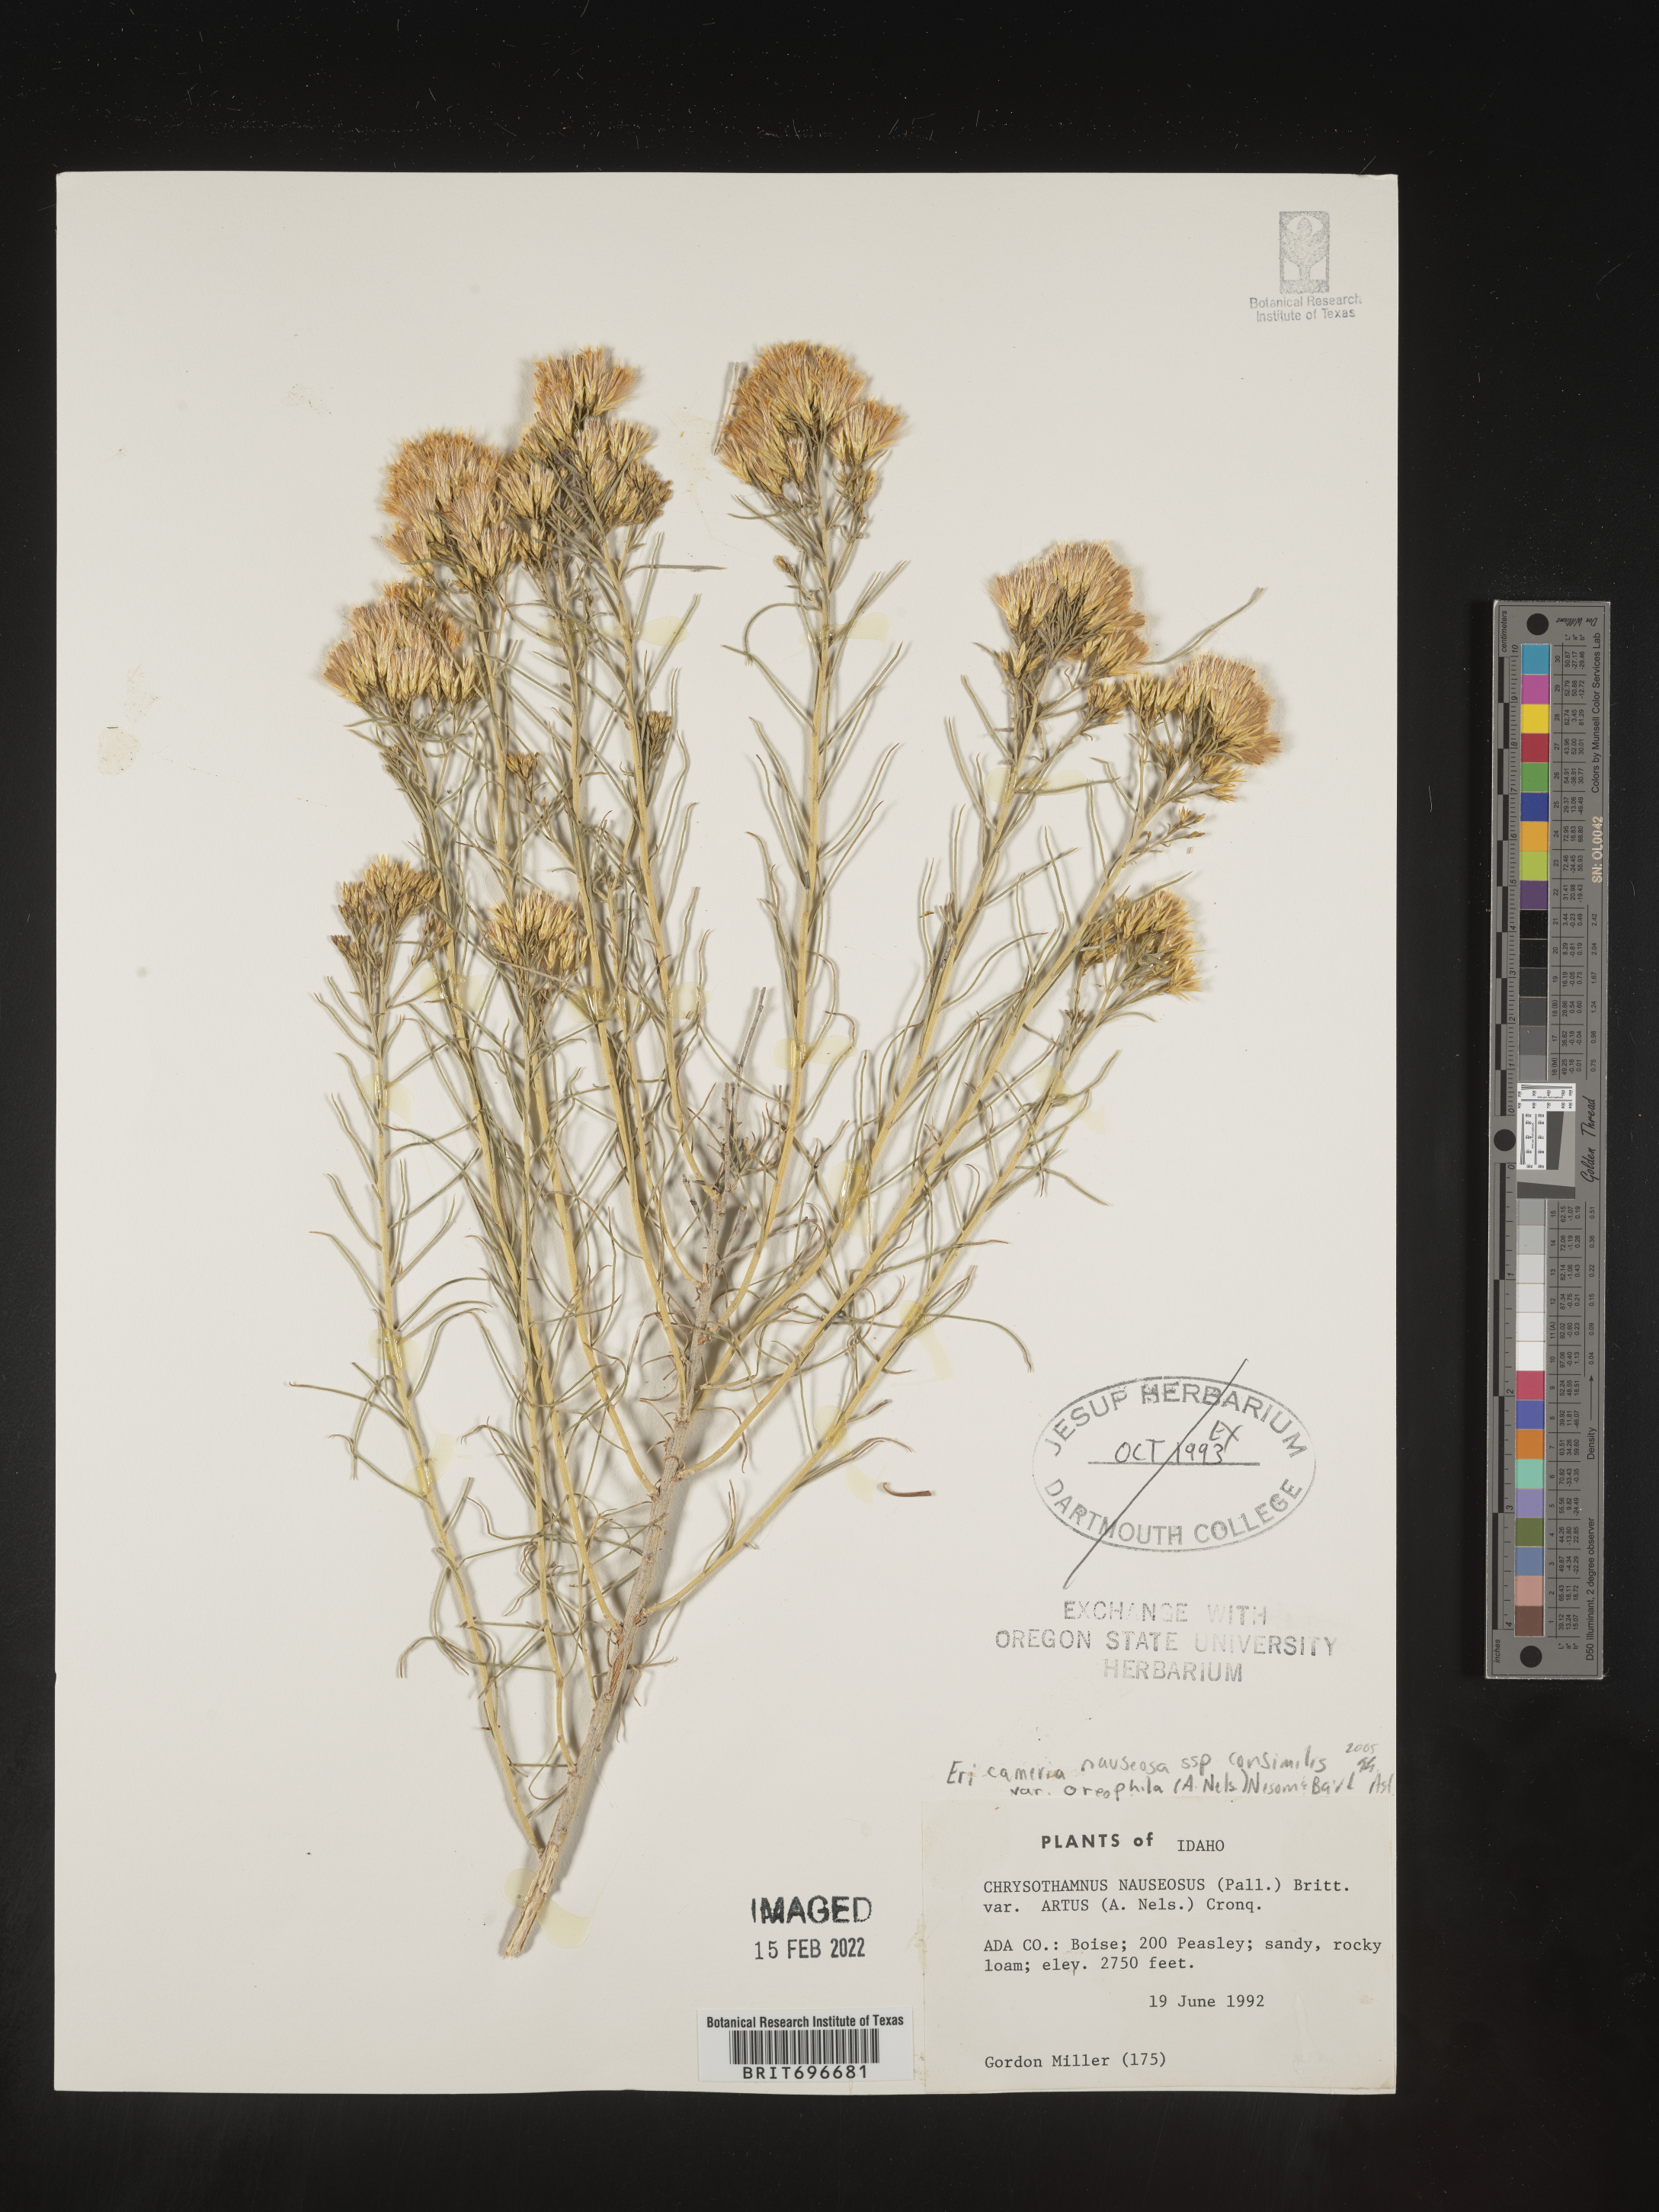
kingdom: Plantae
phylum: Tracheophyta
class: Magnoliopsida
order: Asterales
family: Asteraceae
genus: Ericameria
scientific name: Ericameria nauseosa
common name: Rubber rabbitbrush
